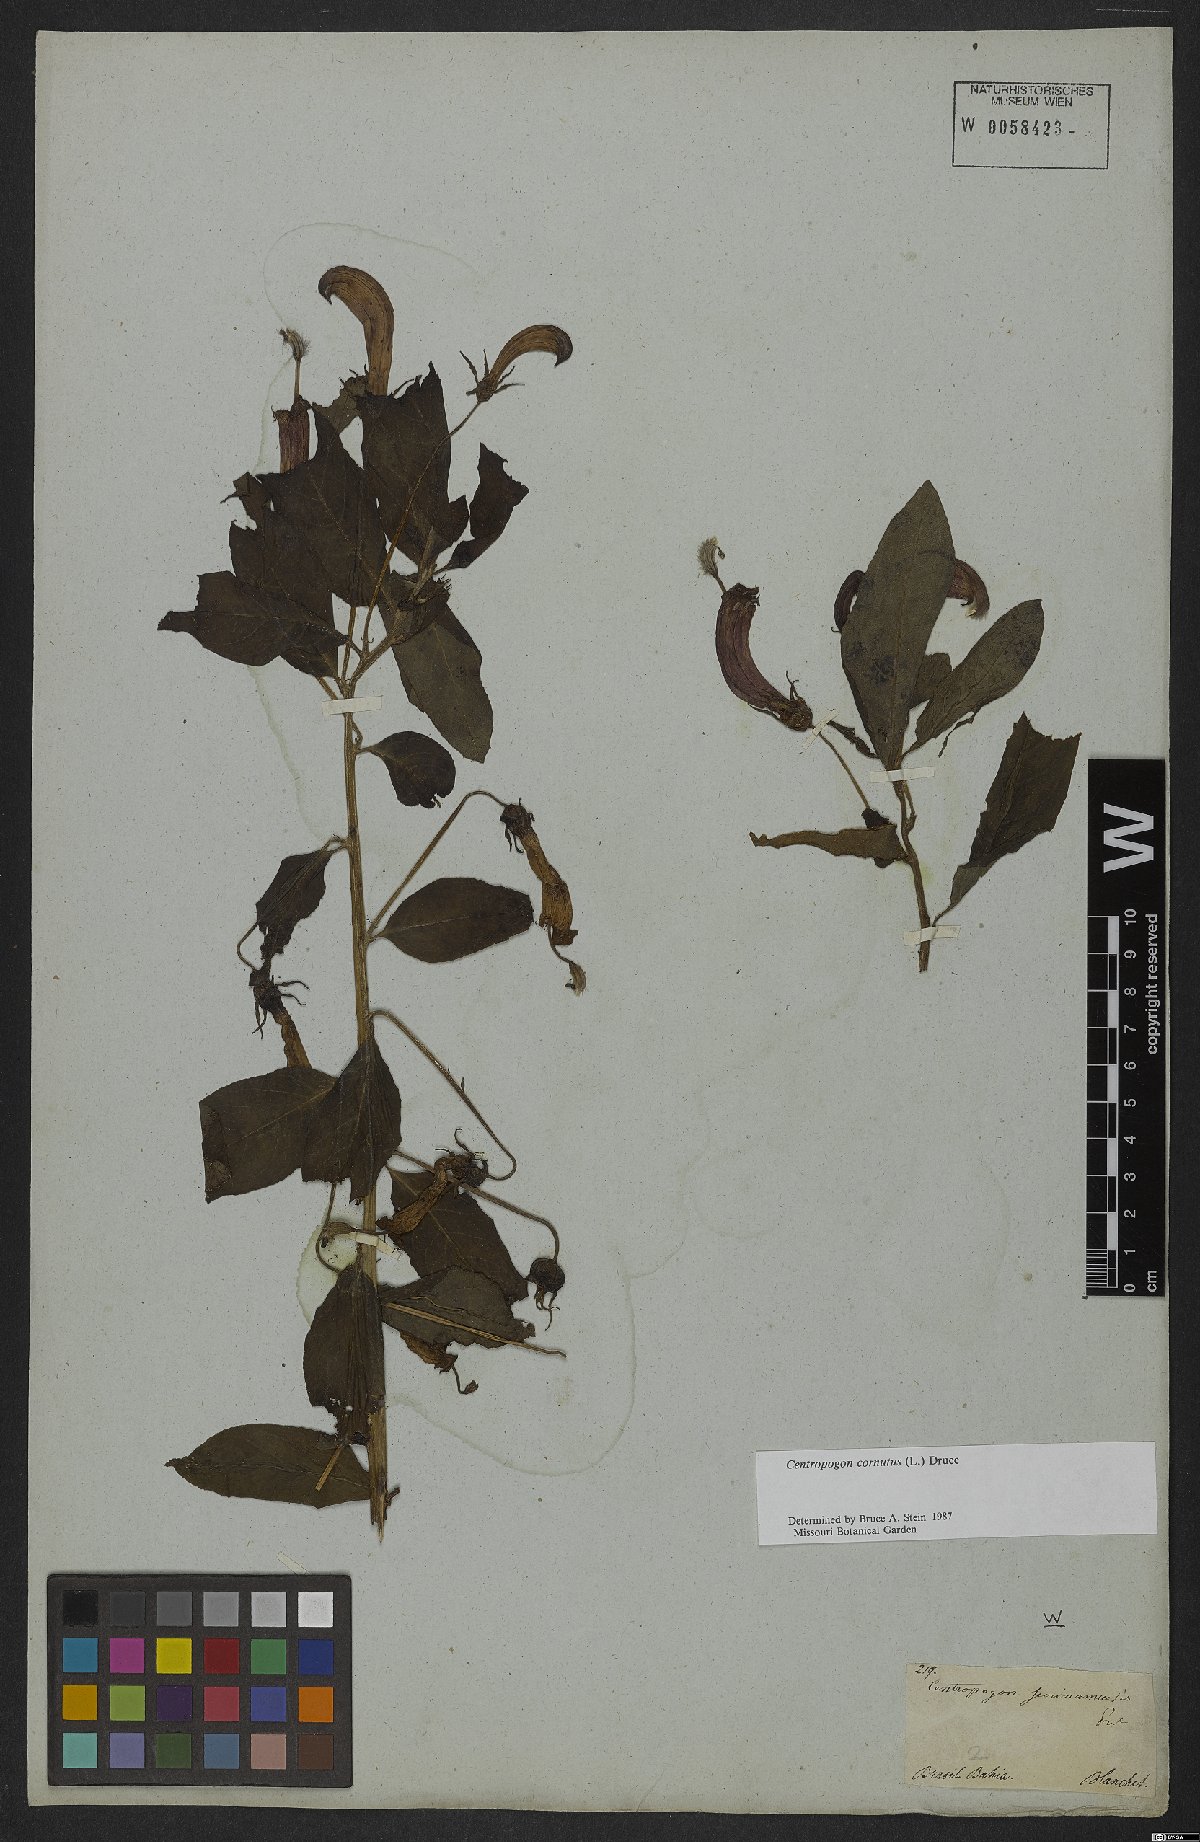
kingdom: Plantae
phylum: Tracheophyta
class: Magnoliopsida
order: Asterales
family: Campanulaceae
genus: Centropogon
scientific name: Centropogon cornutus
